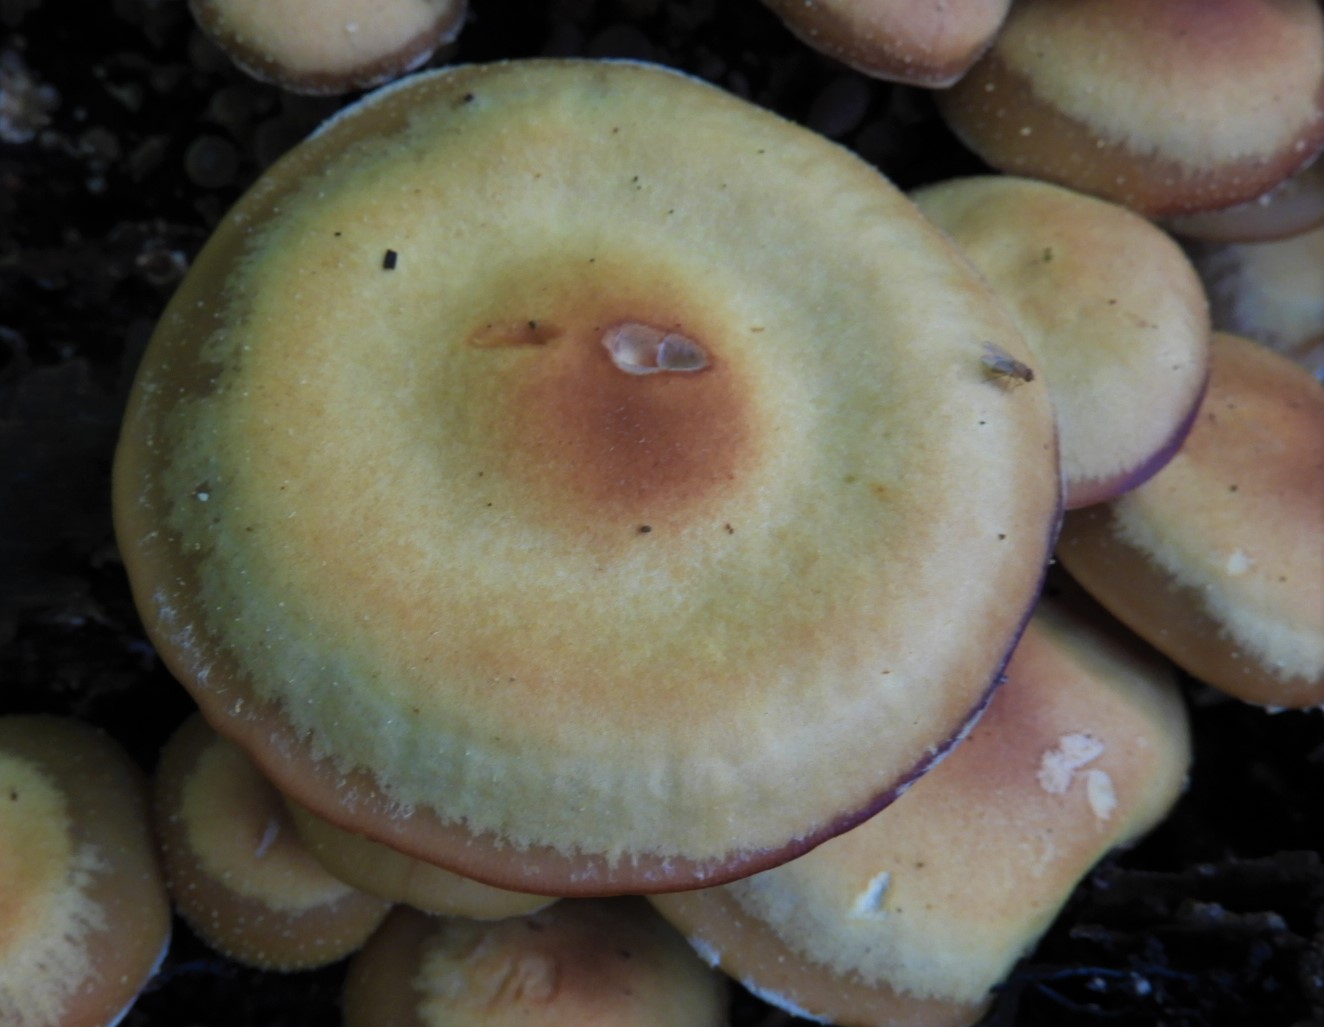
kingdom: Fungi
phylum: Basidiomycota
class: Agaricomycetes
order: Agaricales
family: Strophariaceae
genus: Kuehneromyces
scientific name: Kuehneromyces mutabilis
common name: foranderlig skælhat
